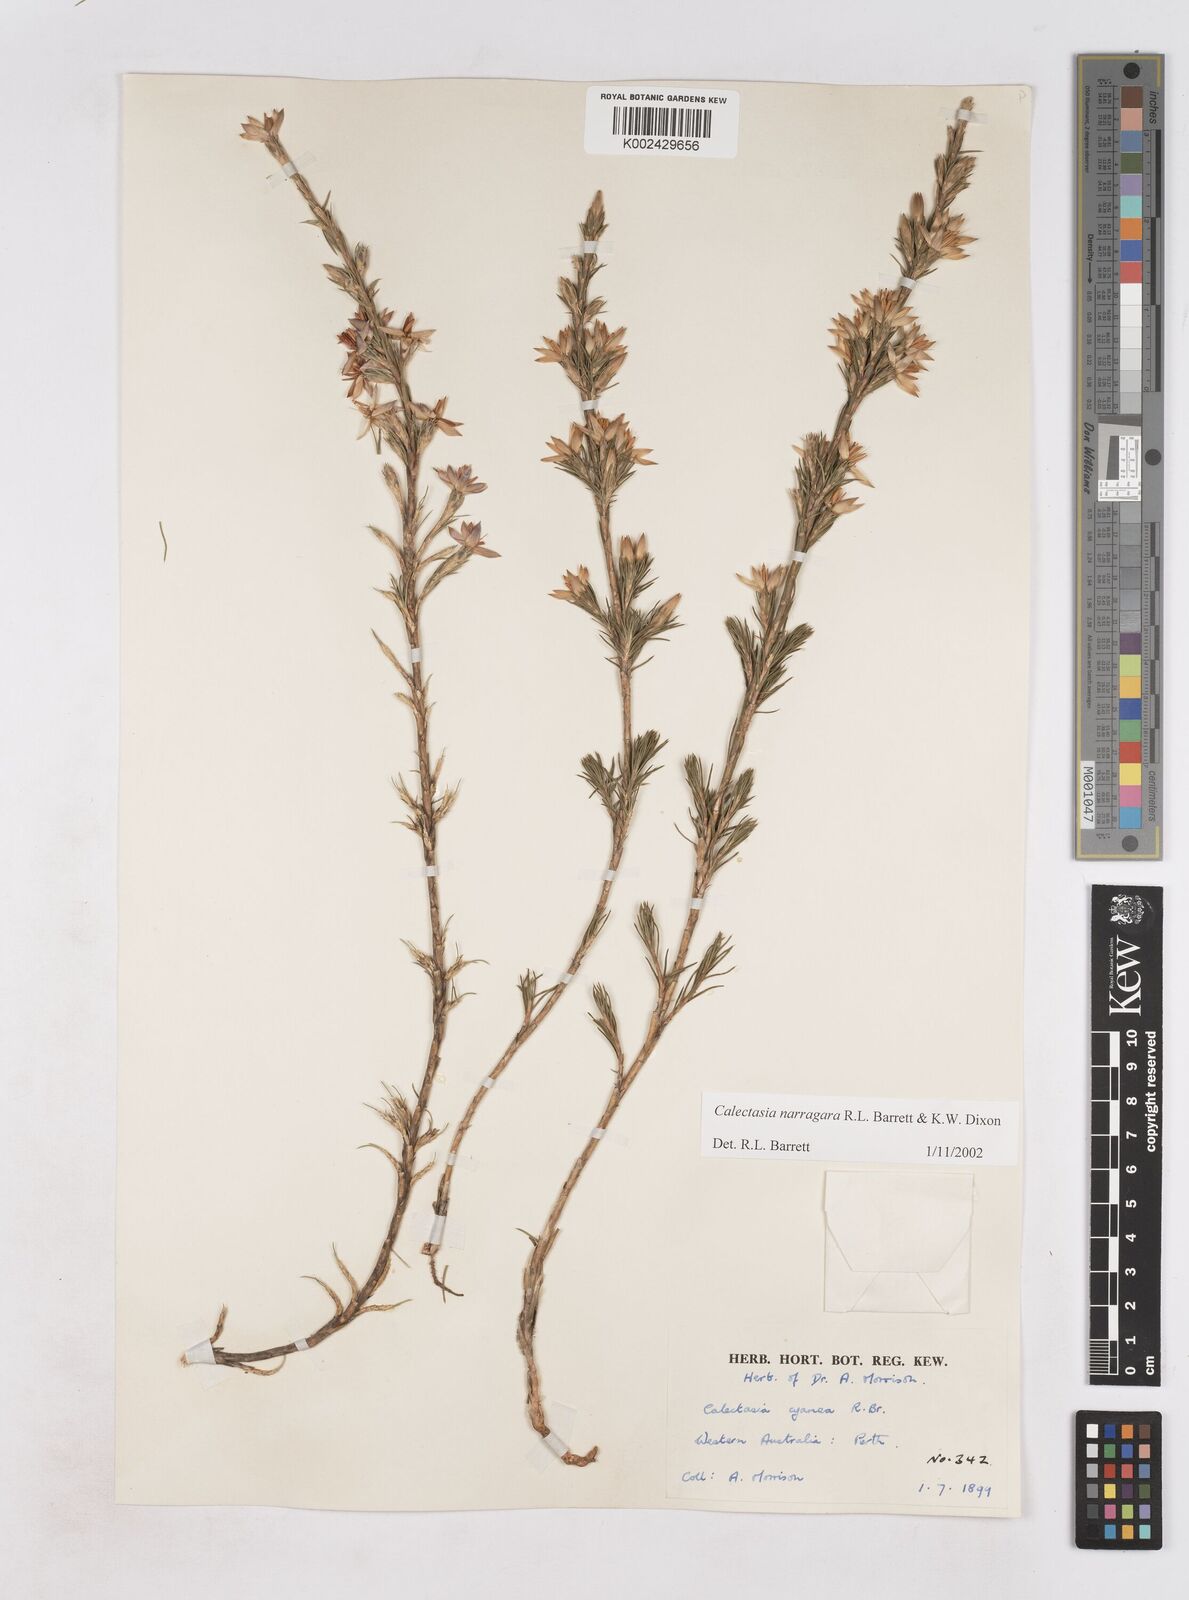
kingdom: Plantae
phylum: Tracheophyta
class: Liliopsida
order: Arecales
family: Dasypogonaceae
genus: Calectasia
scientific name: Calectasia narragara
